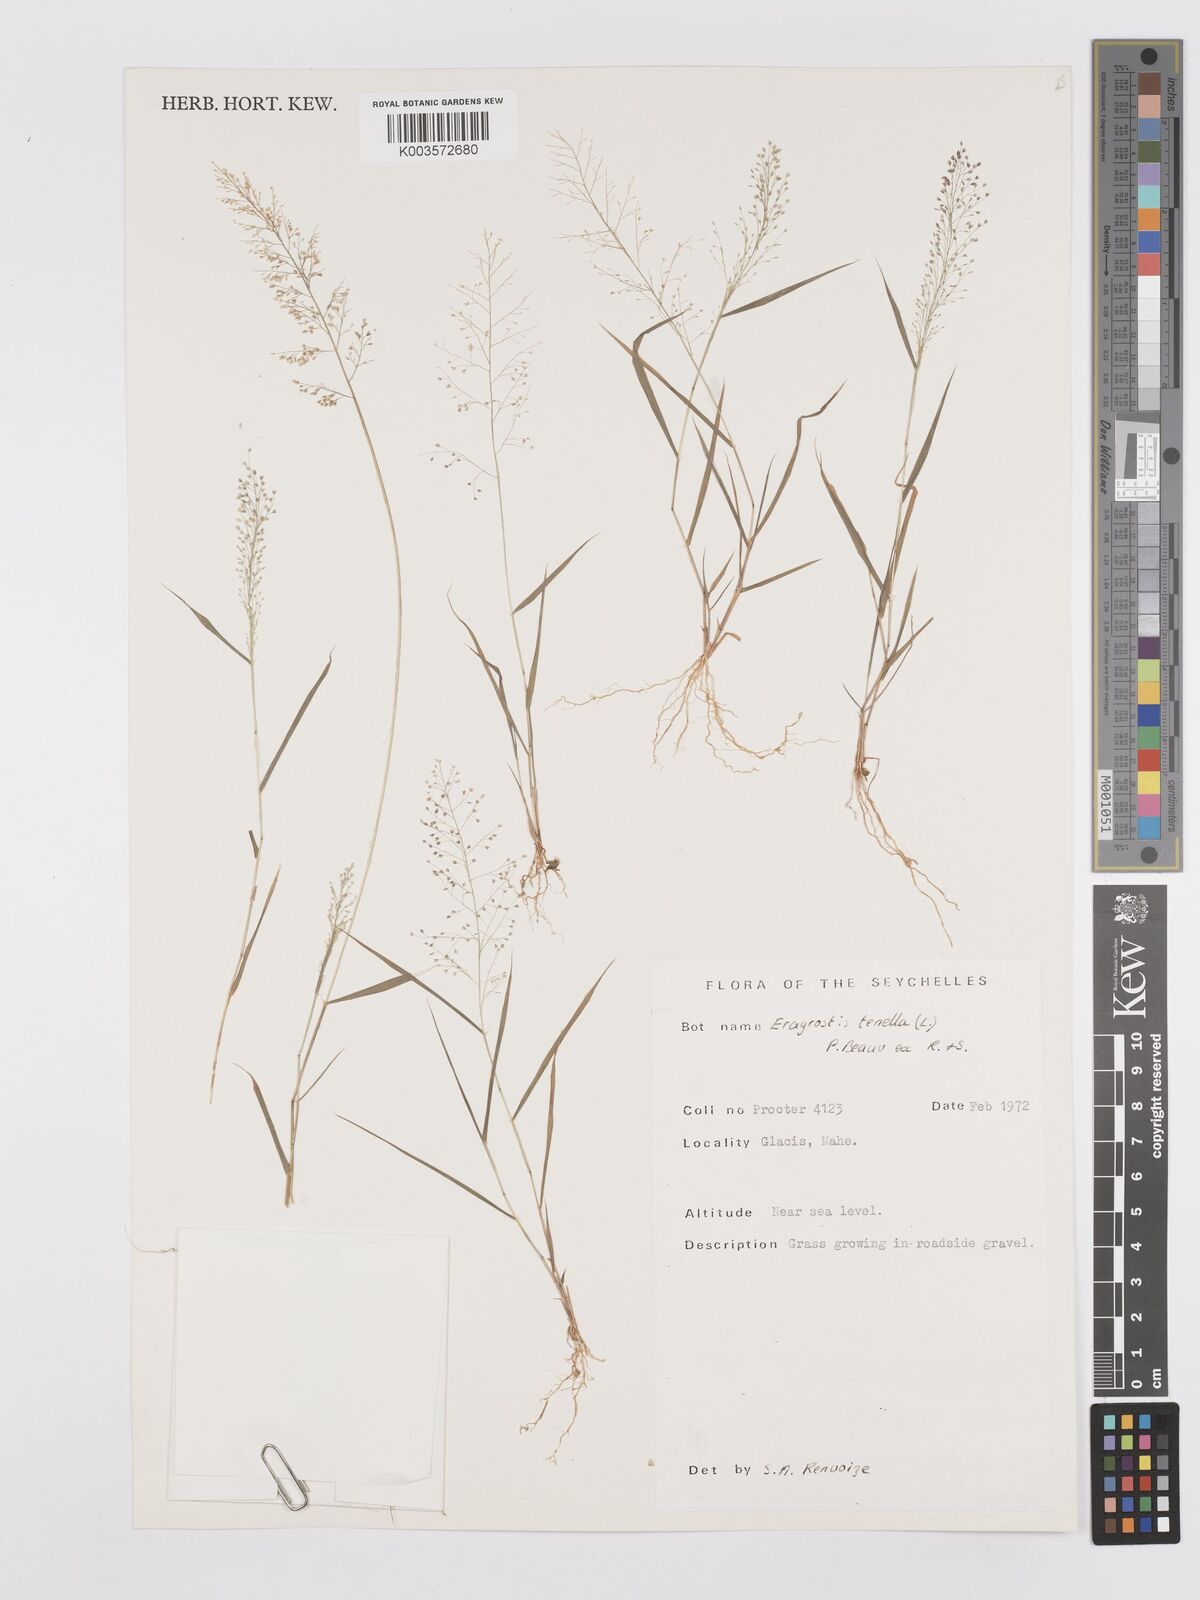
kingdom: Plantae
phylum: Tracheophyta
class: Liliopsida
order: Poales
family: Poaceae
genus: Eragrostis
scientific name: Eragrostis tenella
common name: Japanese lovegrass
